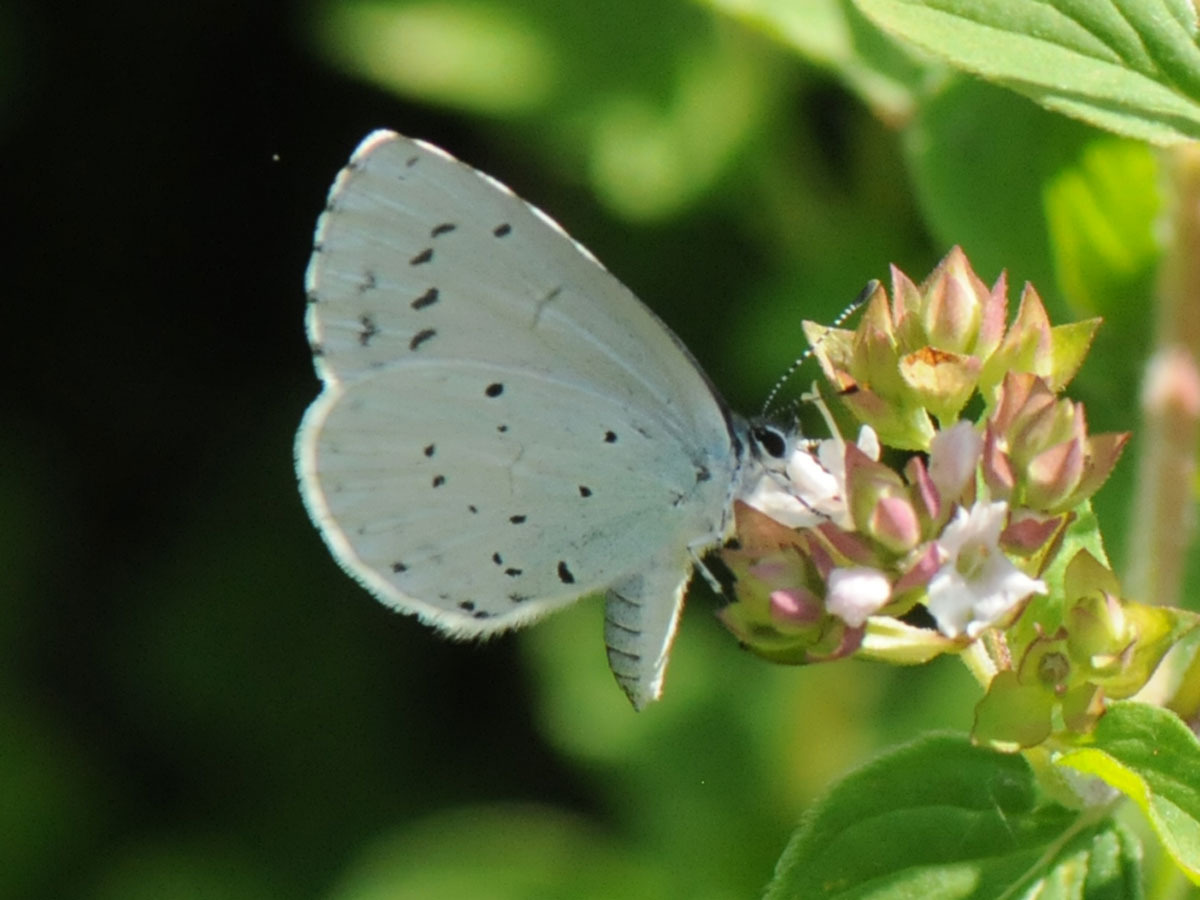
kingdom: Animalia
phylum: Arthropoda
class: Insecta
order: Lepidoptera
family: Lycaenidae
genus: Celastrina
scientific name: Celastrina argiolus
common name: Skovblåfugl
